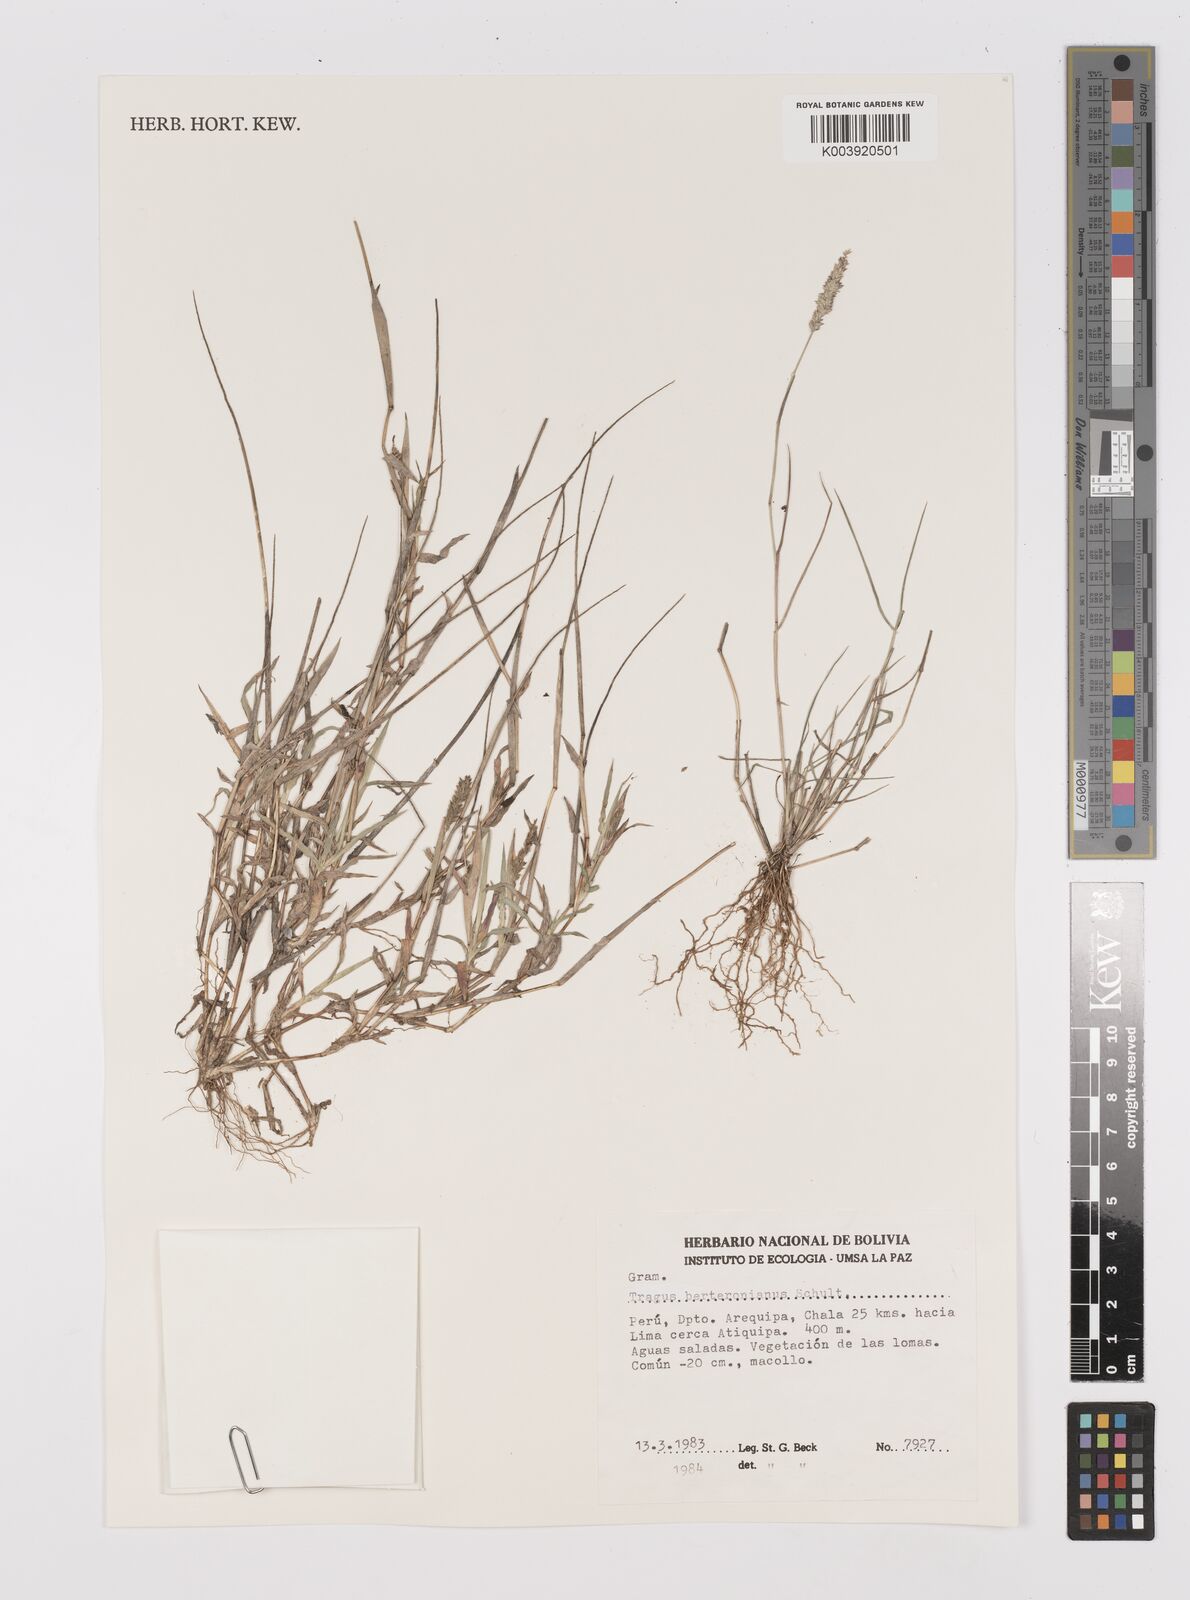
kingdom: Plantae
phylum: Tracheophyta
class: Liliopsida
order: Poales
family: Poaceae
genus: Tragus
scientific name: Tragus berteronianus
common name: African bur-grass
